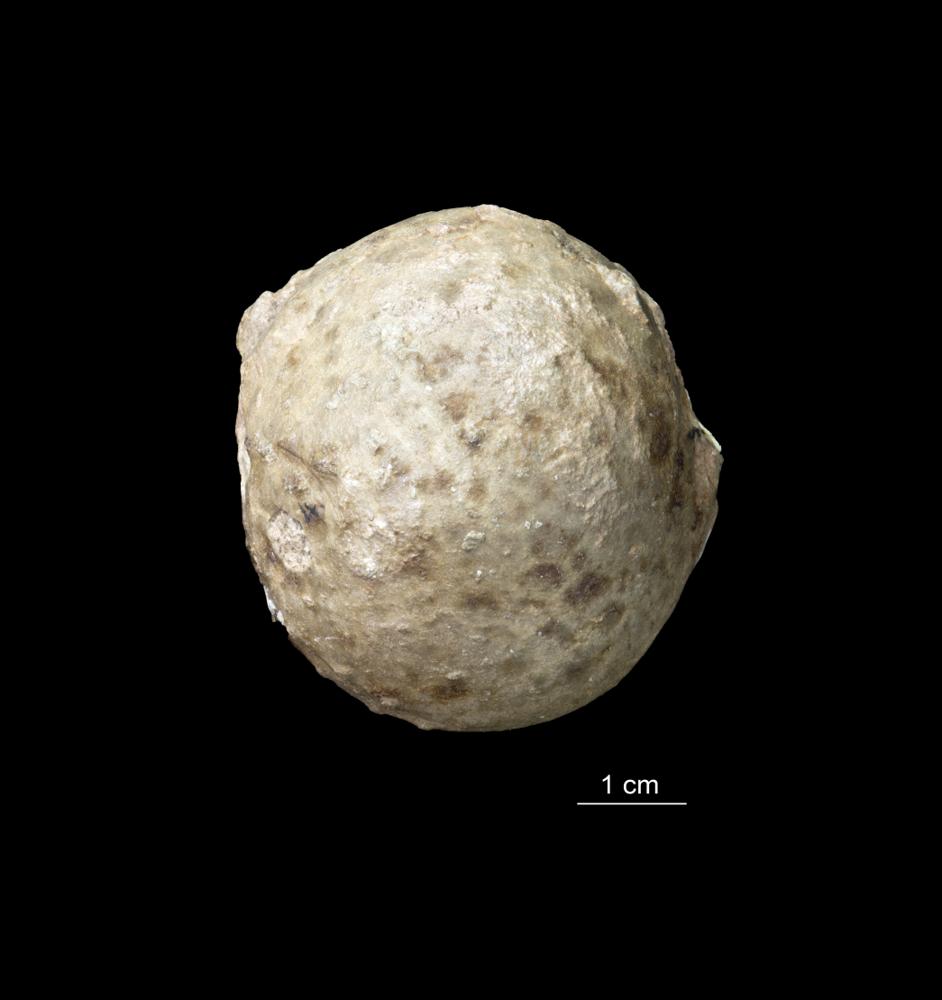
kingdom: Animalia
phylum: Echinodermata
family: Sphaeronitidae
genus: Eucystis
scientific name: Eucystis Glyptosphaerites leuchtenbergi
